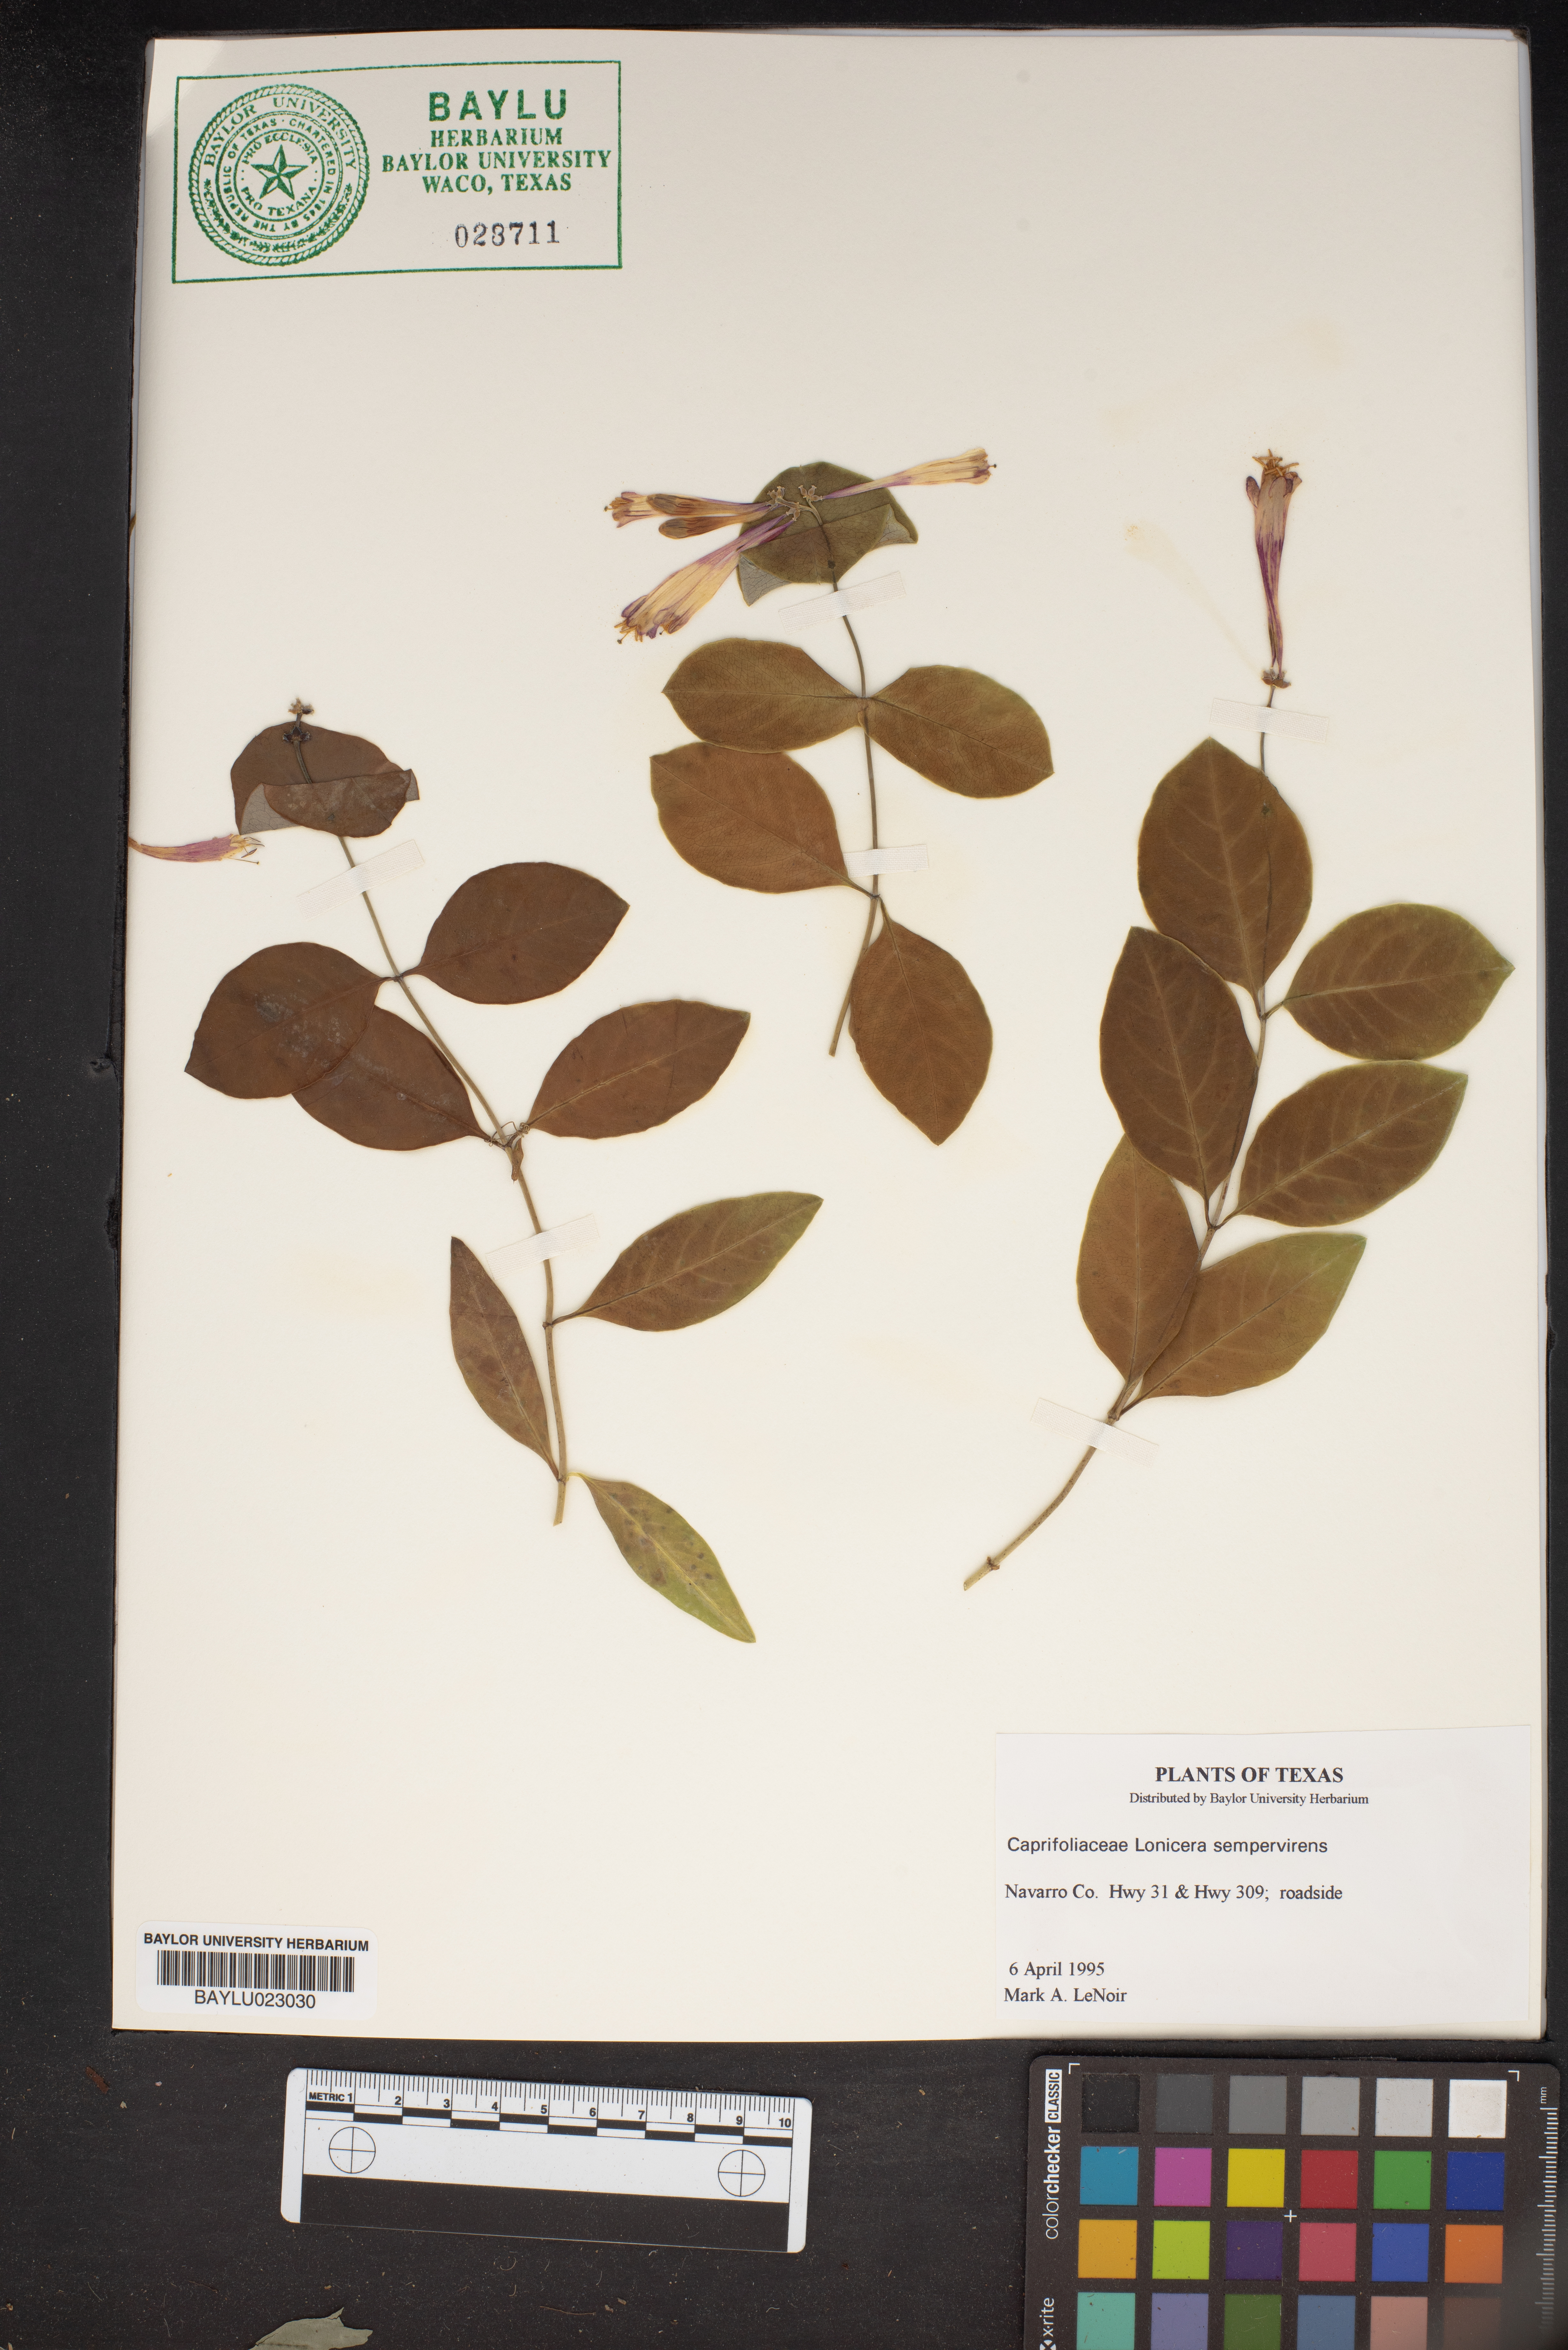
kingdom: Plantae
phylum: Tracheophyta
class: Magnoliopsida
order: Dipsacales
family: Caprifoliaceae
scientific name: Caprifoliaceae
